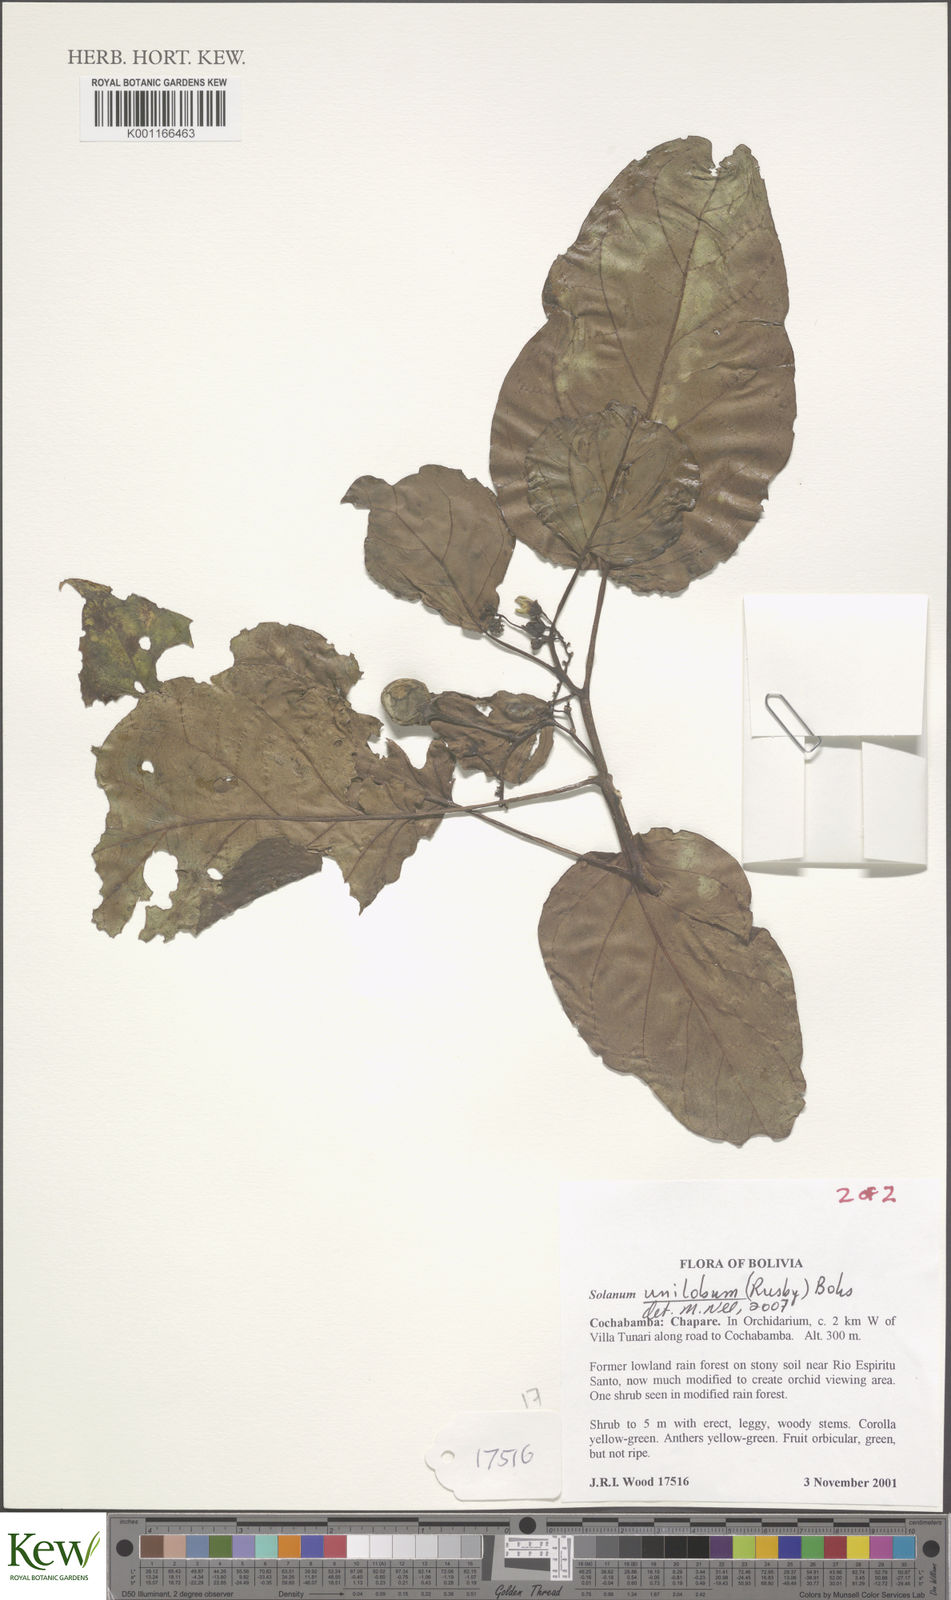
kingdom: Plantae
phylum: Tracheophyta
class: Magnoliopsida
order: Solanales
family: Solanaceae
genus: Solanum
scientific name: Solanum unilobum
